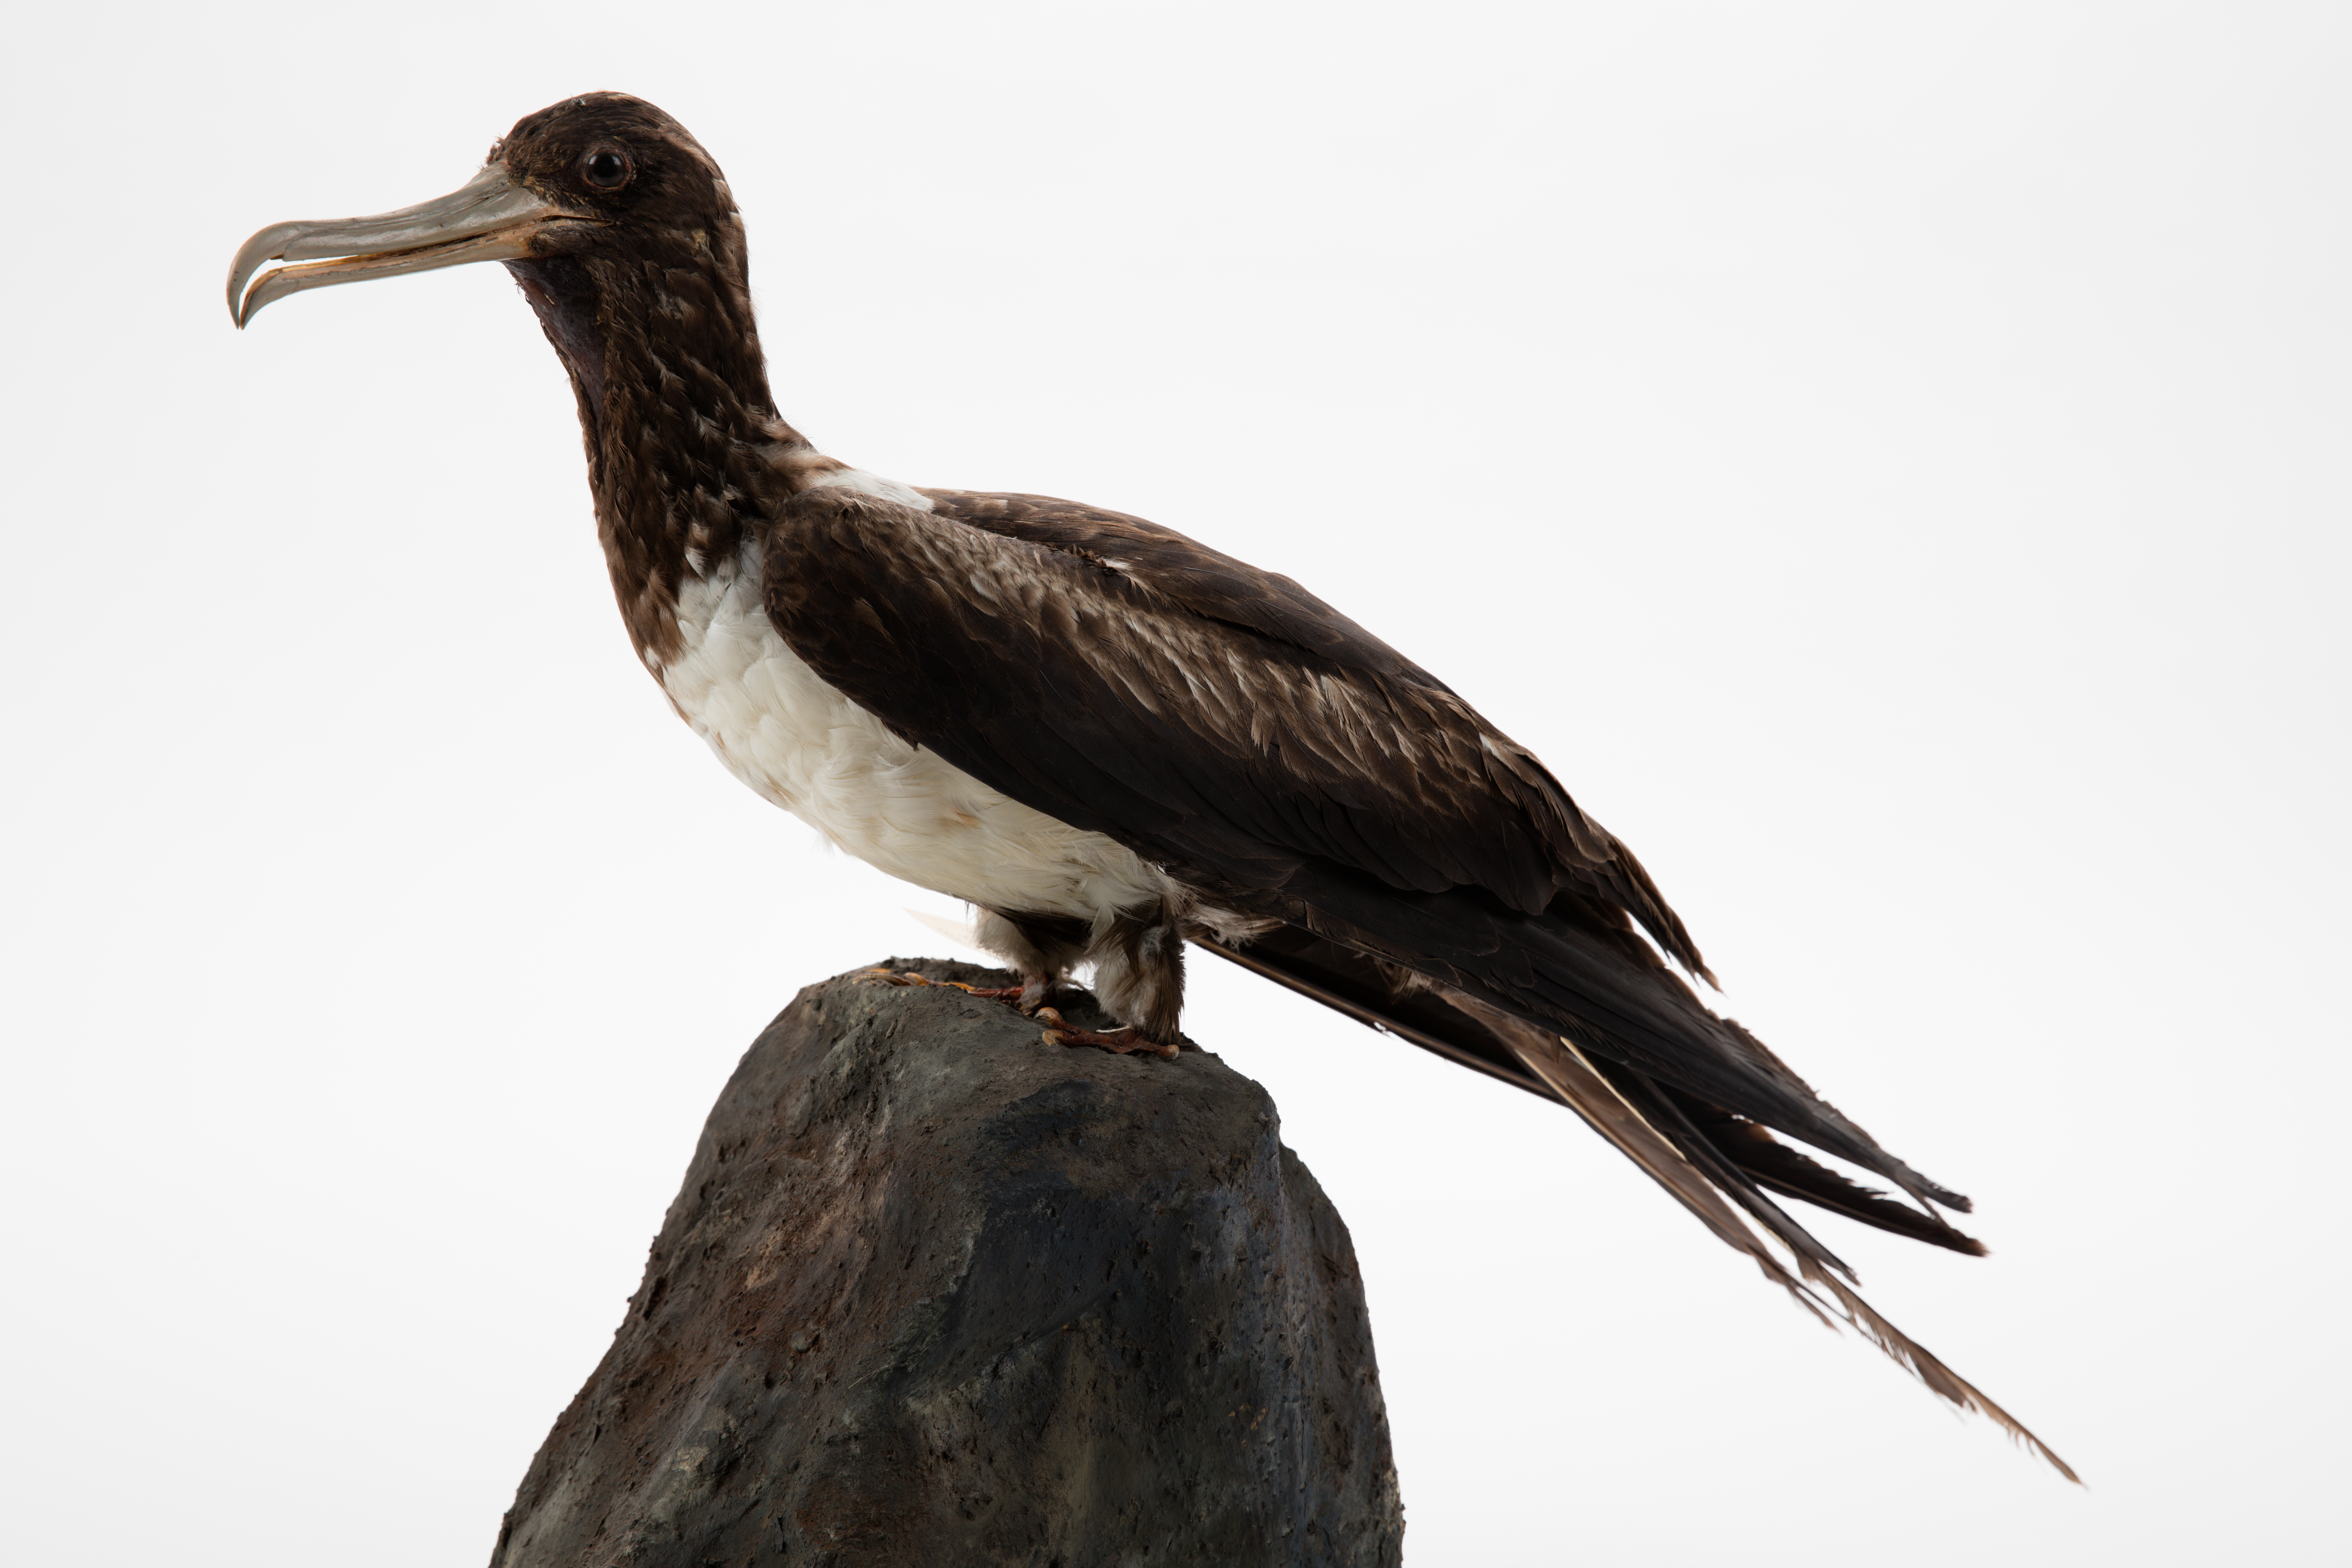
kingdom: Animalia
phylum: Chordata
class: Aves
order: Suliformes
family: Fregatidae
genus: Fregata
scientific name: Fregata ariel
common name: Lesser frigatebird
